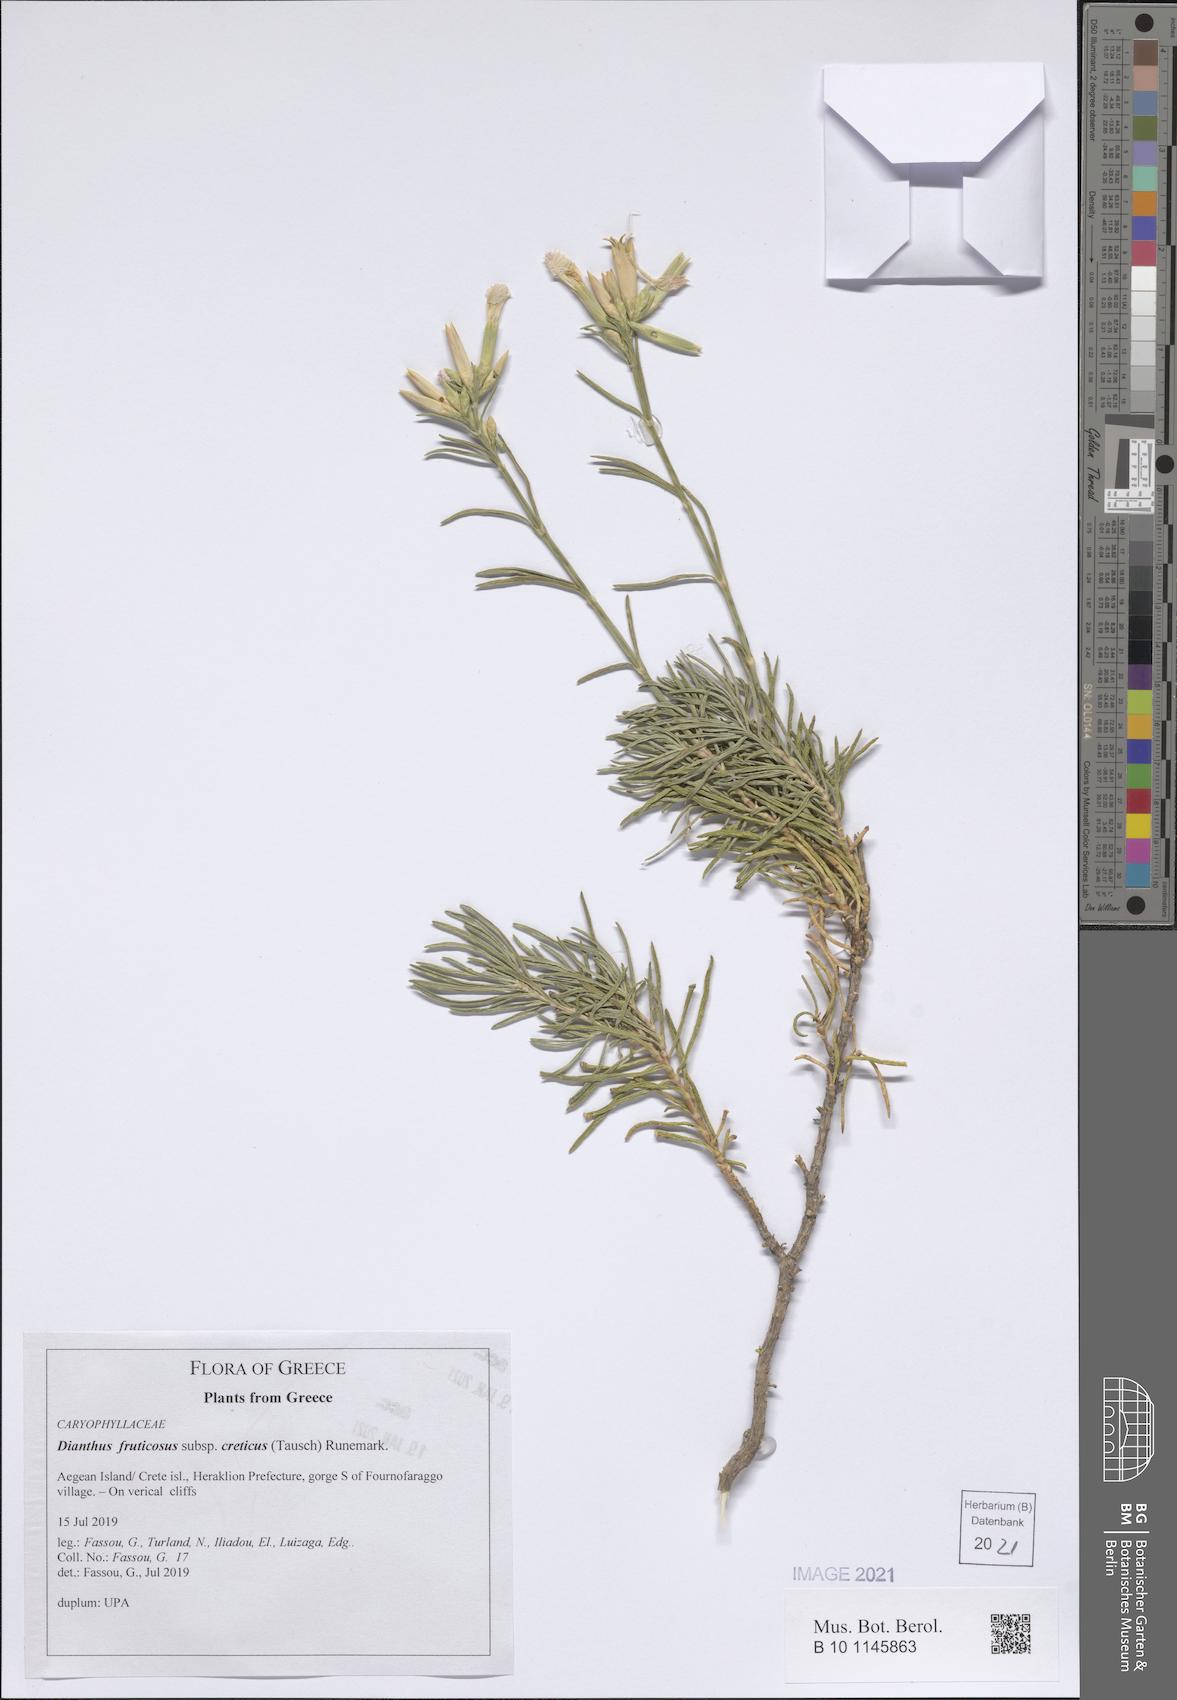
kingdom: Plantae
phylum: Tracheophyta
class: Magnoliopsida
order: Caryophyllales
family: Caryophyllaceae
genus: Dianthus
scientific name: Dianthus fruticosus
